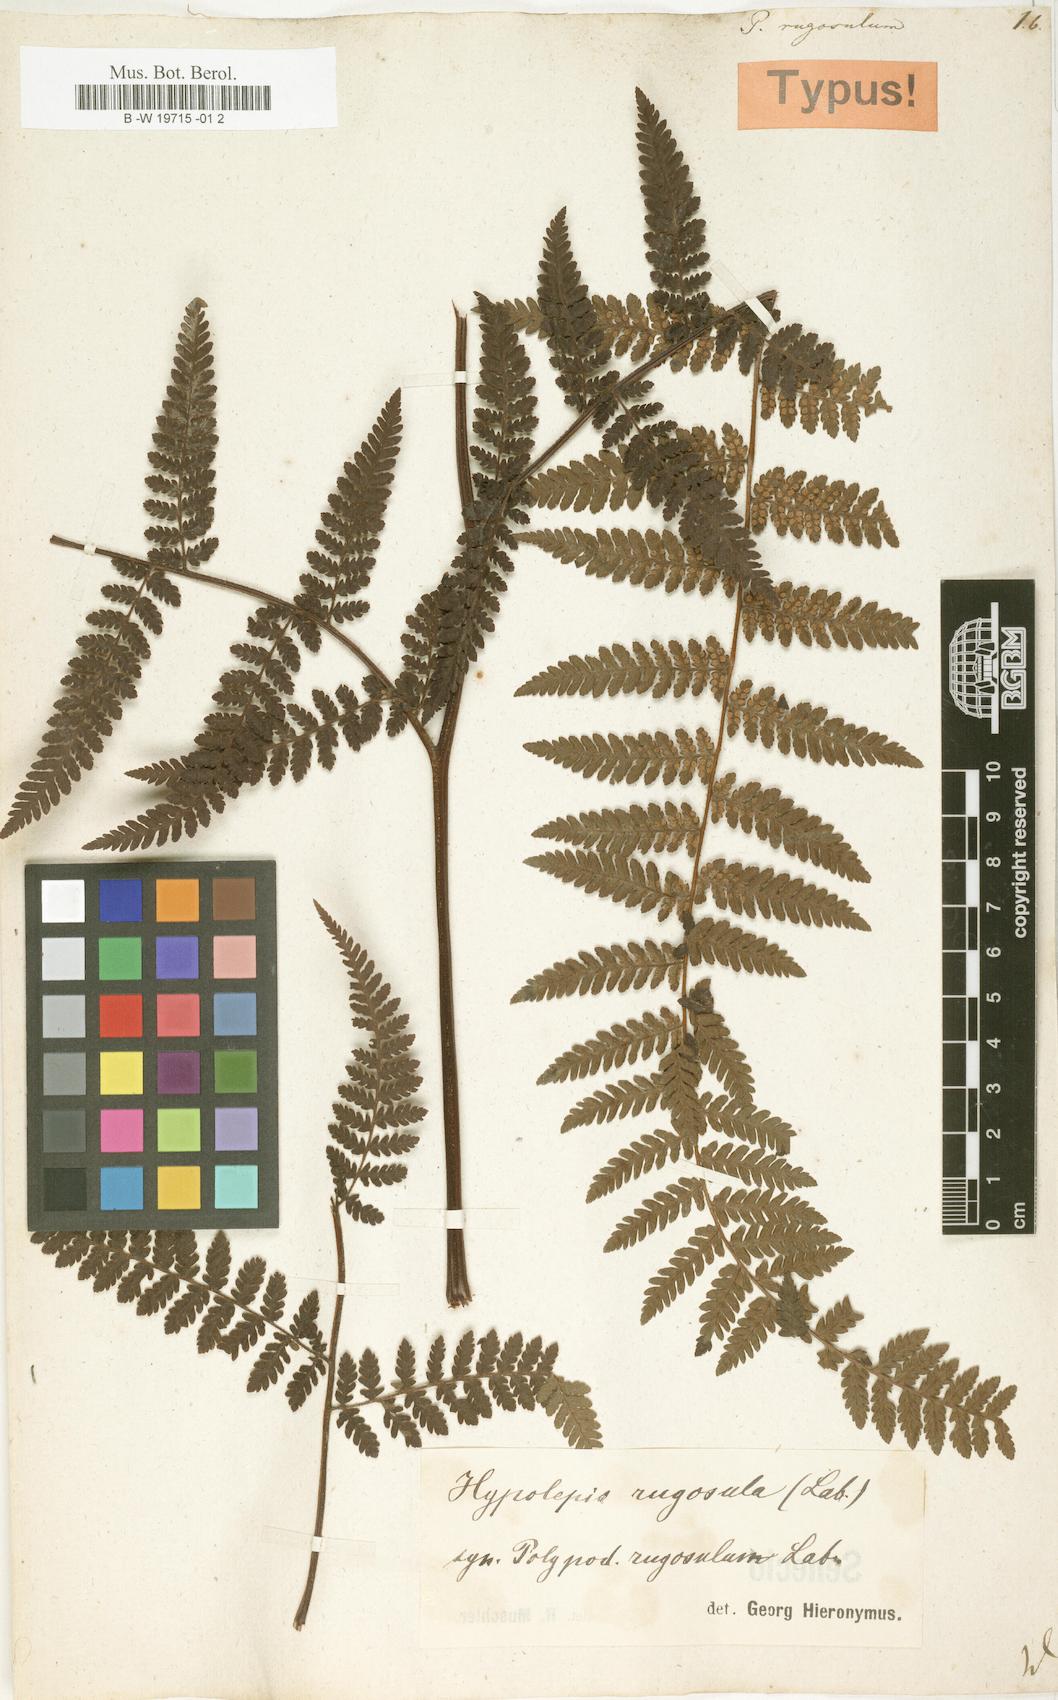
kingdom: Plantae
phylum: Tracheophyta
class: Polypodiopsida
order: Polypodiales
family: Dennstaedtiaceae
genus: Hypolepis
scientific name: Hypolepis rugosula
